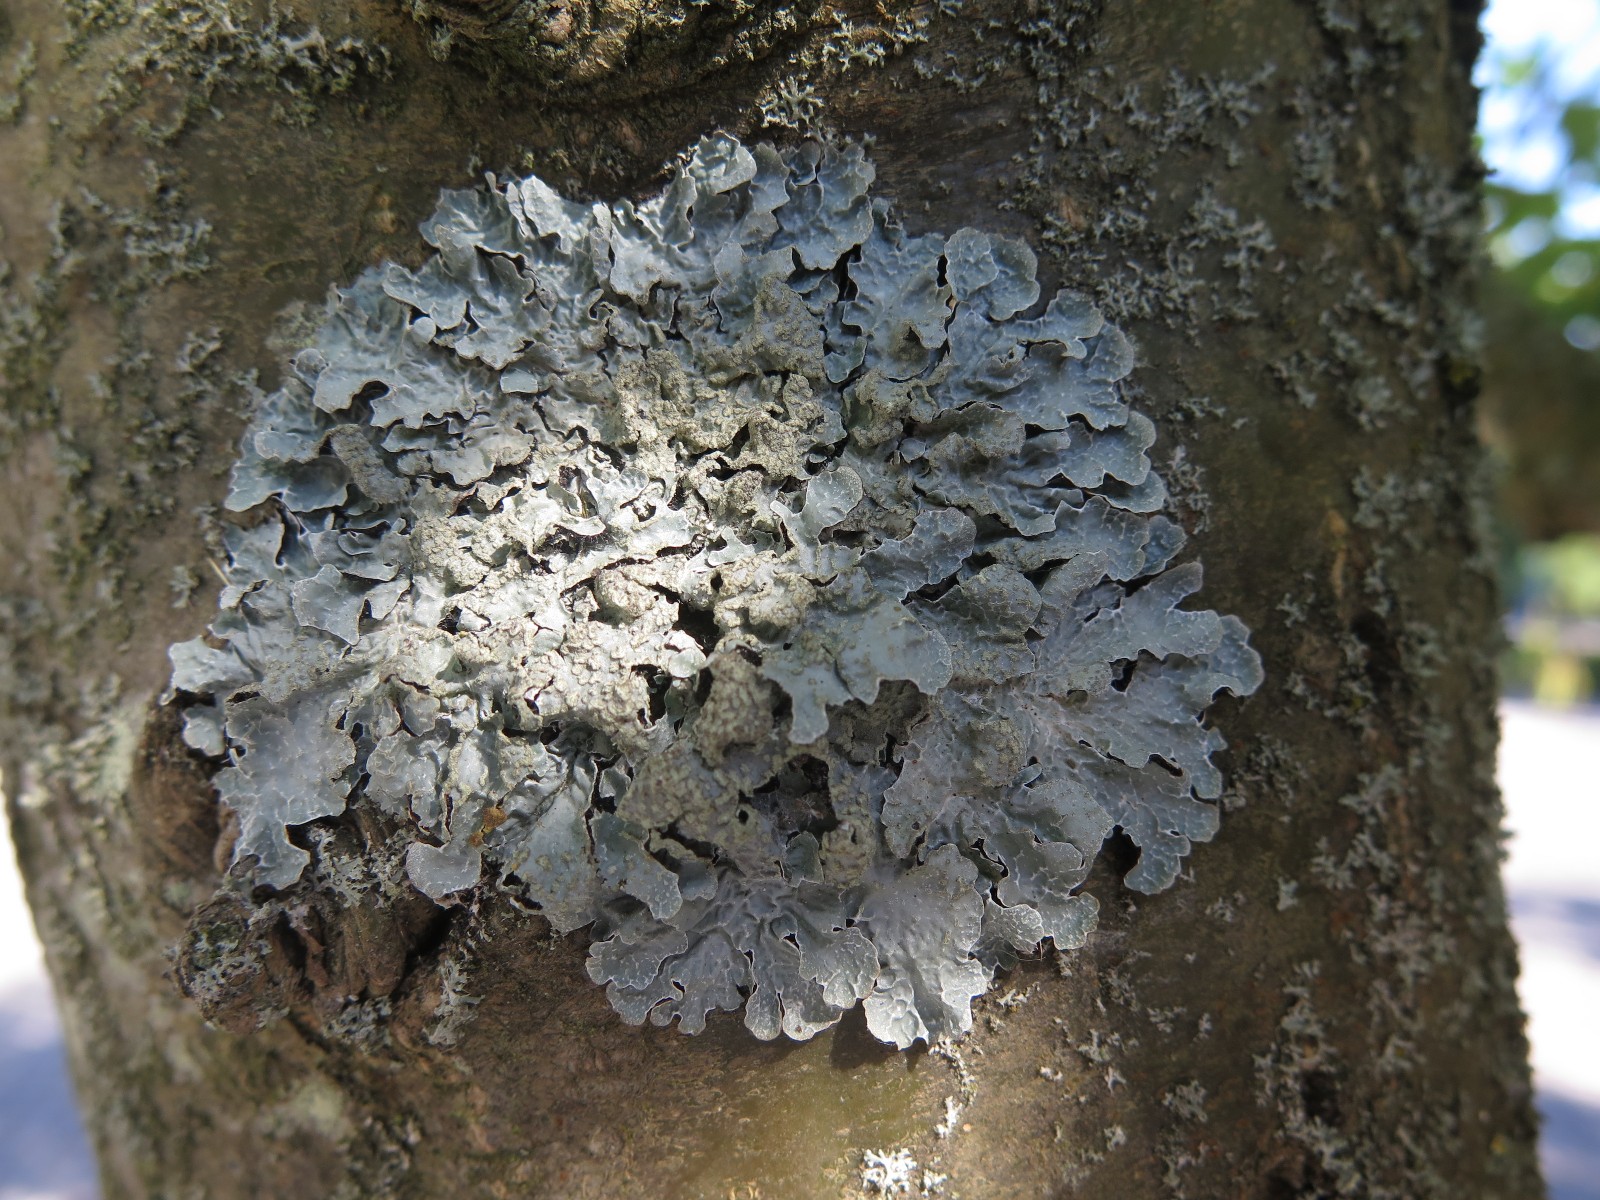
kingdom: Fungi
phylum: Ascomycota
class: Lecanoromycetes
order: Lecanorales
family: Parmeliaceae
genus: Parmelia
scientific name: Parmelia sulcata
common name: rynket skållav
